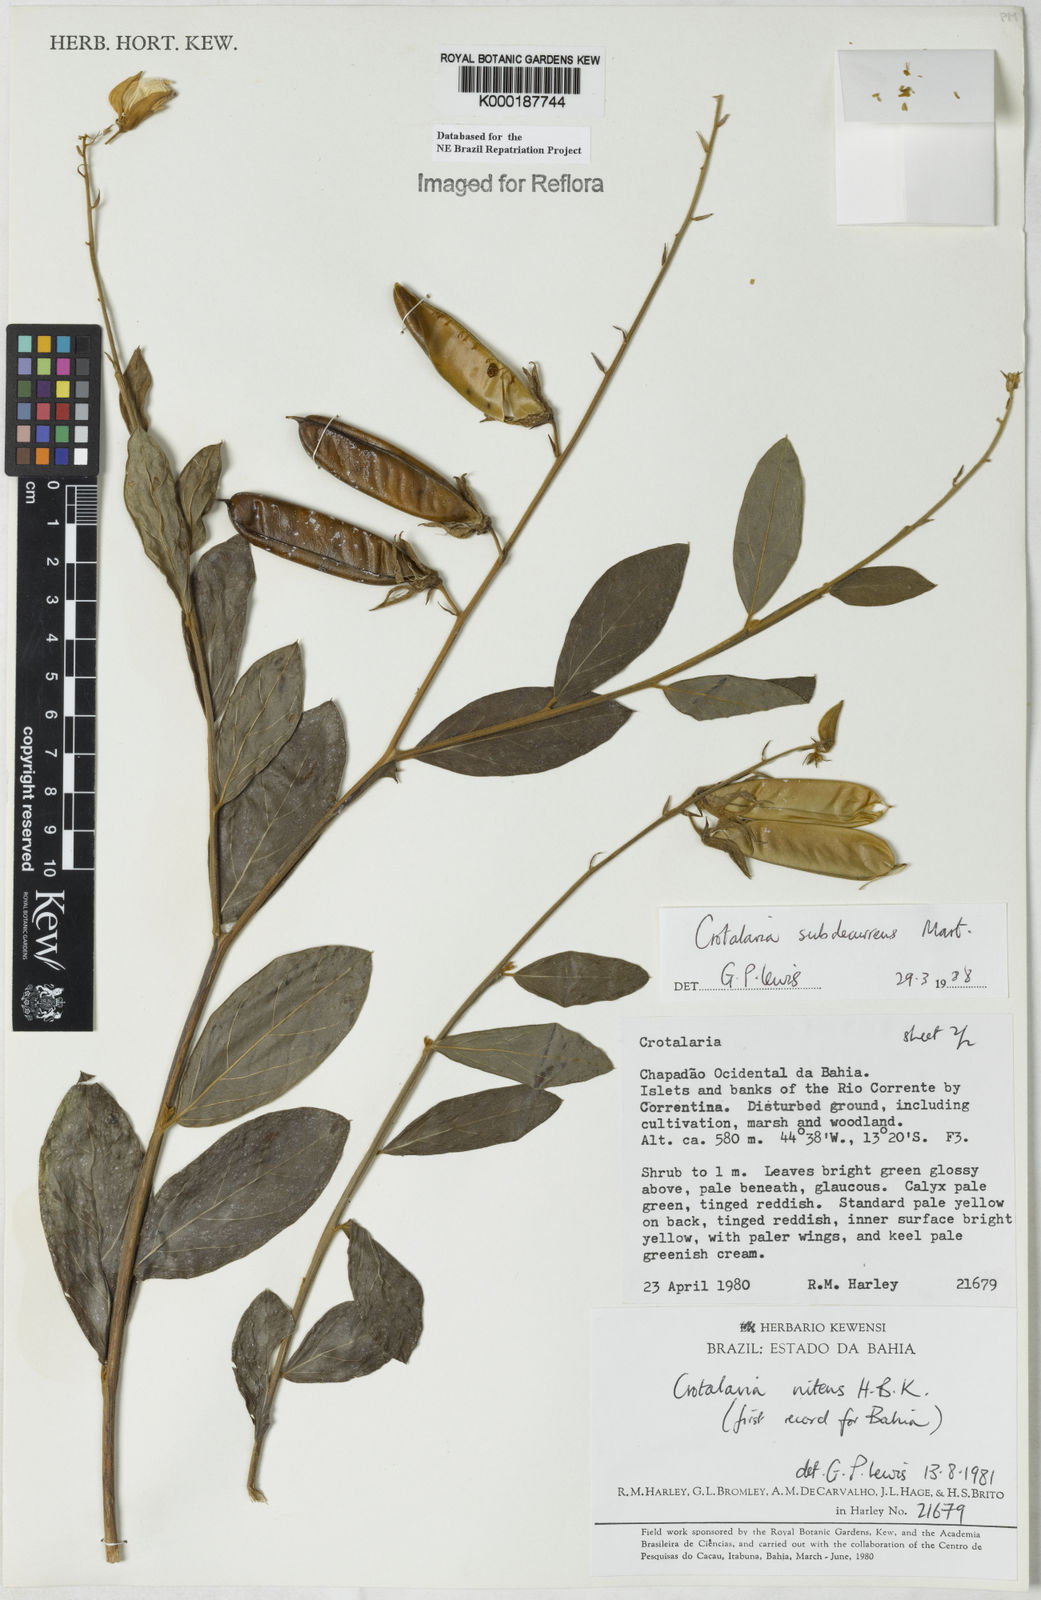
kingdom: Plantae
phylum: Tracheophyta
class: Magnoliopsida
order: Fabales
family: Fabaceae
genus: Crotalaria
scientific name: Crotalaria breviflora
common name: Short-flower crotalaria
